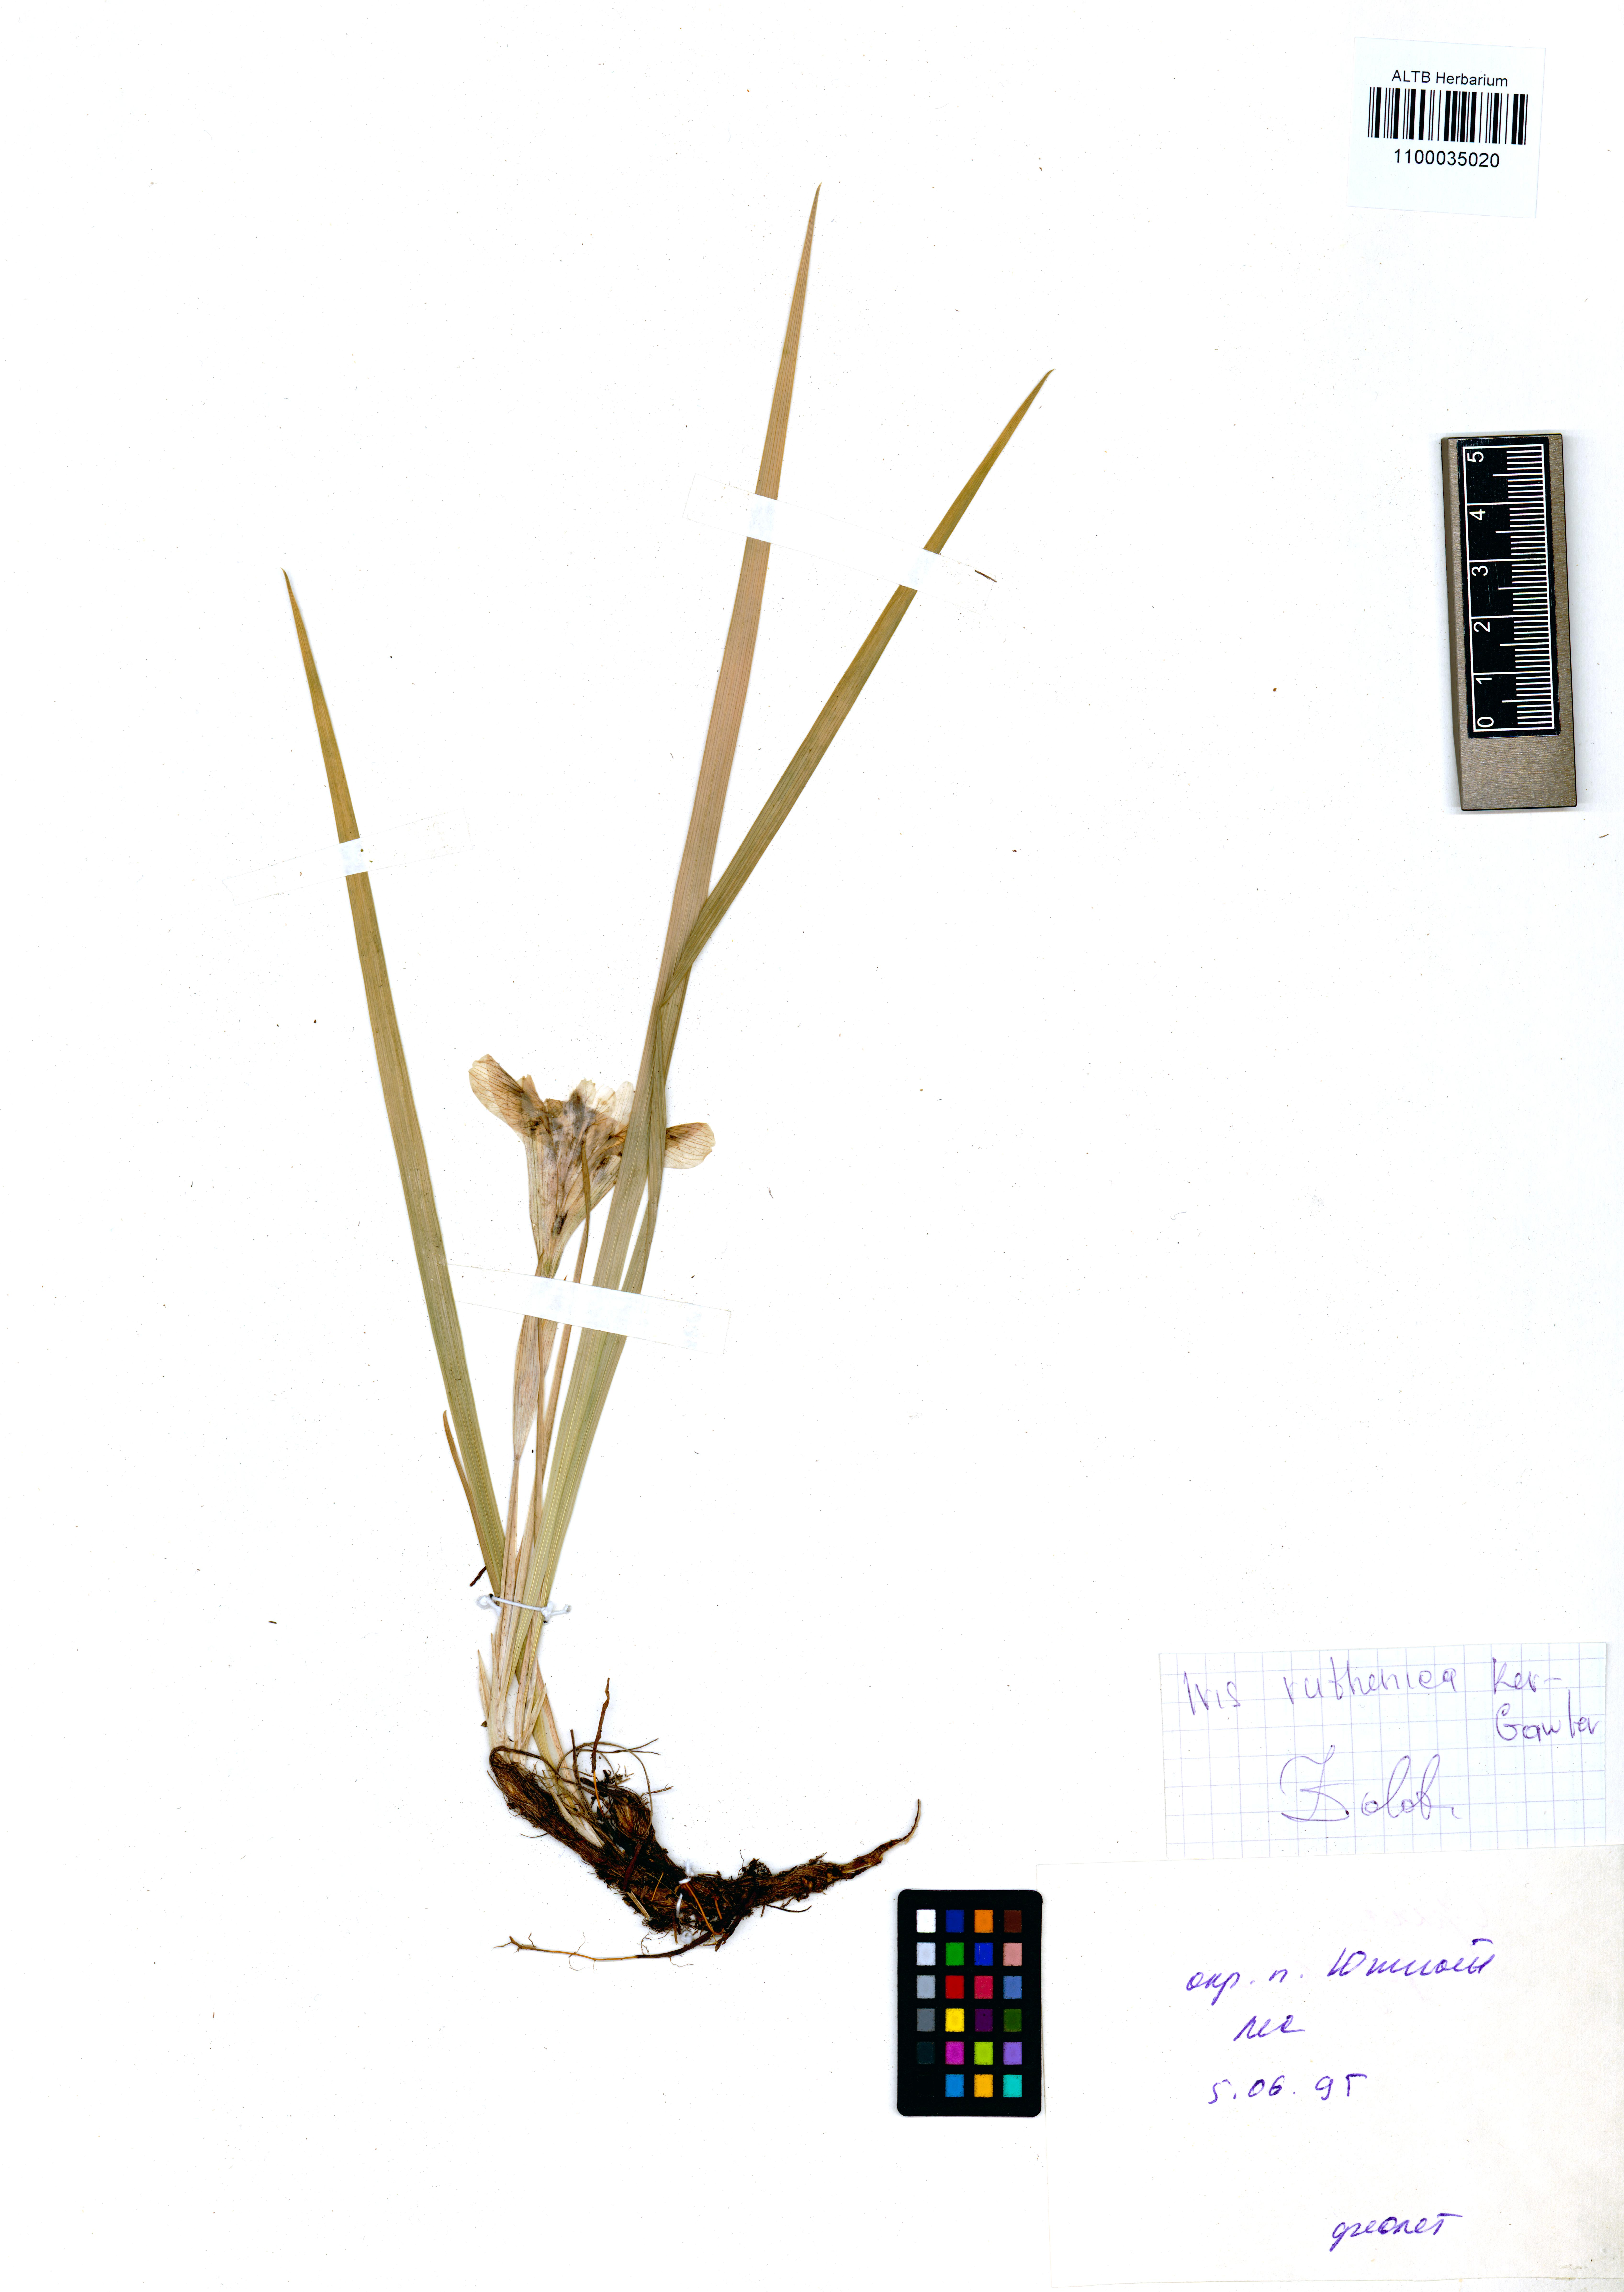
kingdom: Plantae
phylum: Tracheophyta
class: Liliopsida
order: Asparagales
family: Iridaceae
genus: Iris
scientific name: Iris ruthenica
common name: Purple-bract iris
